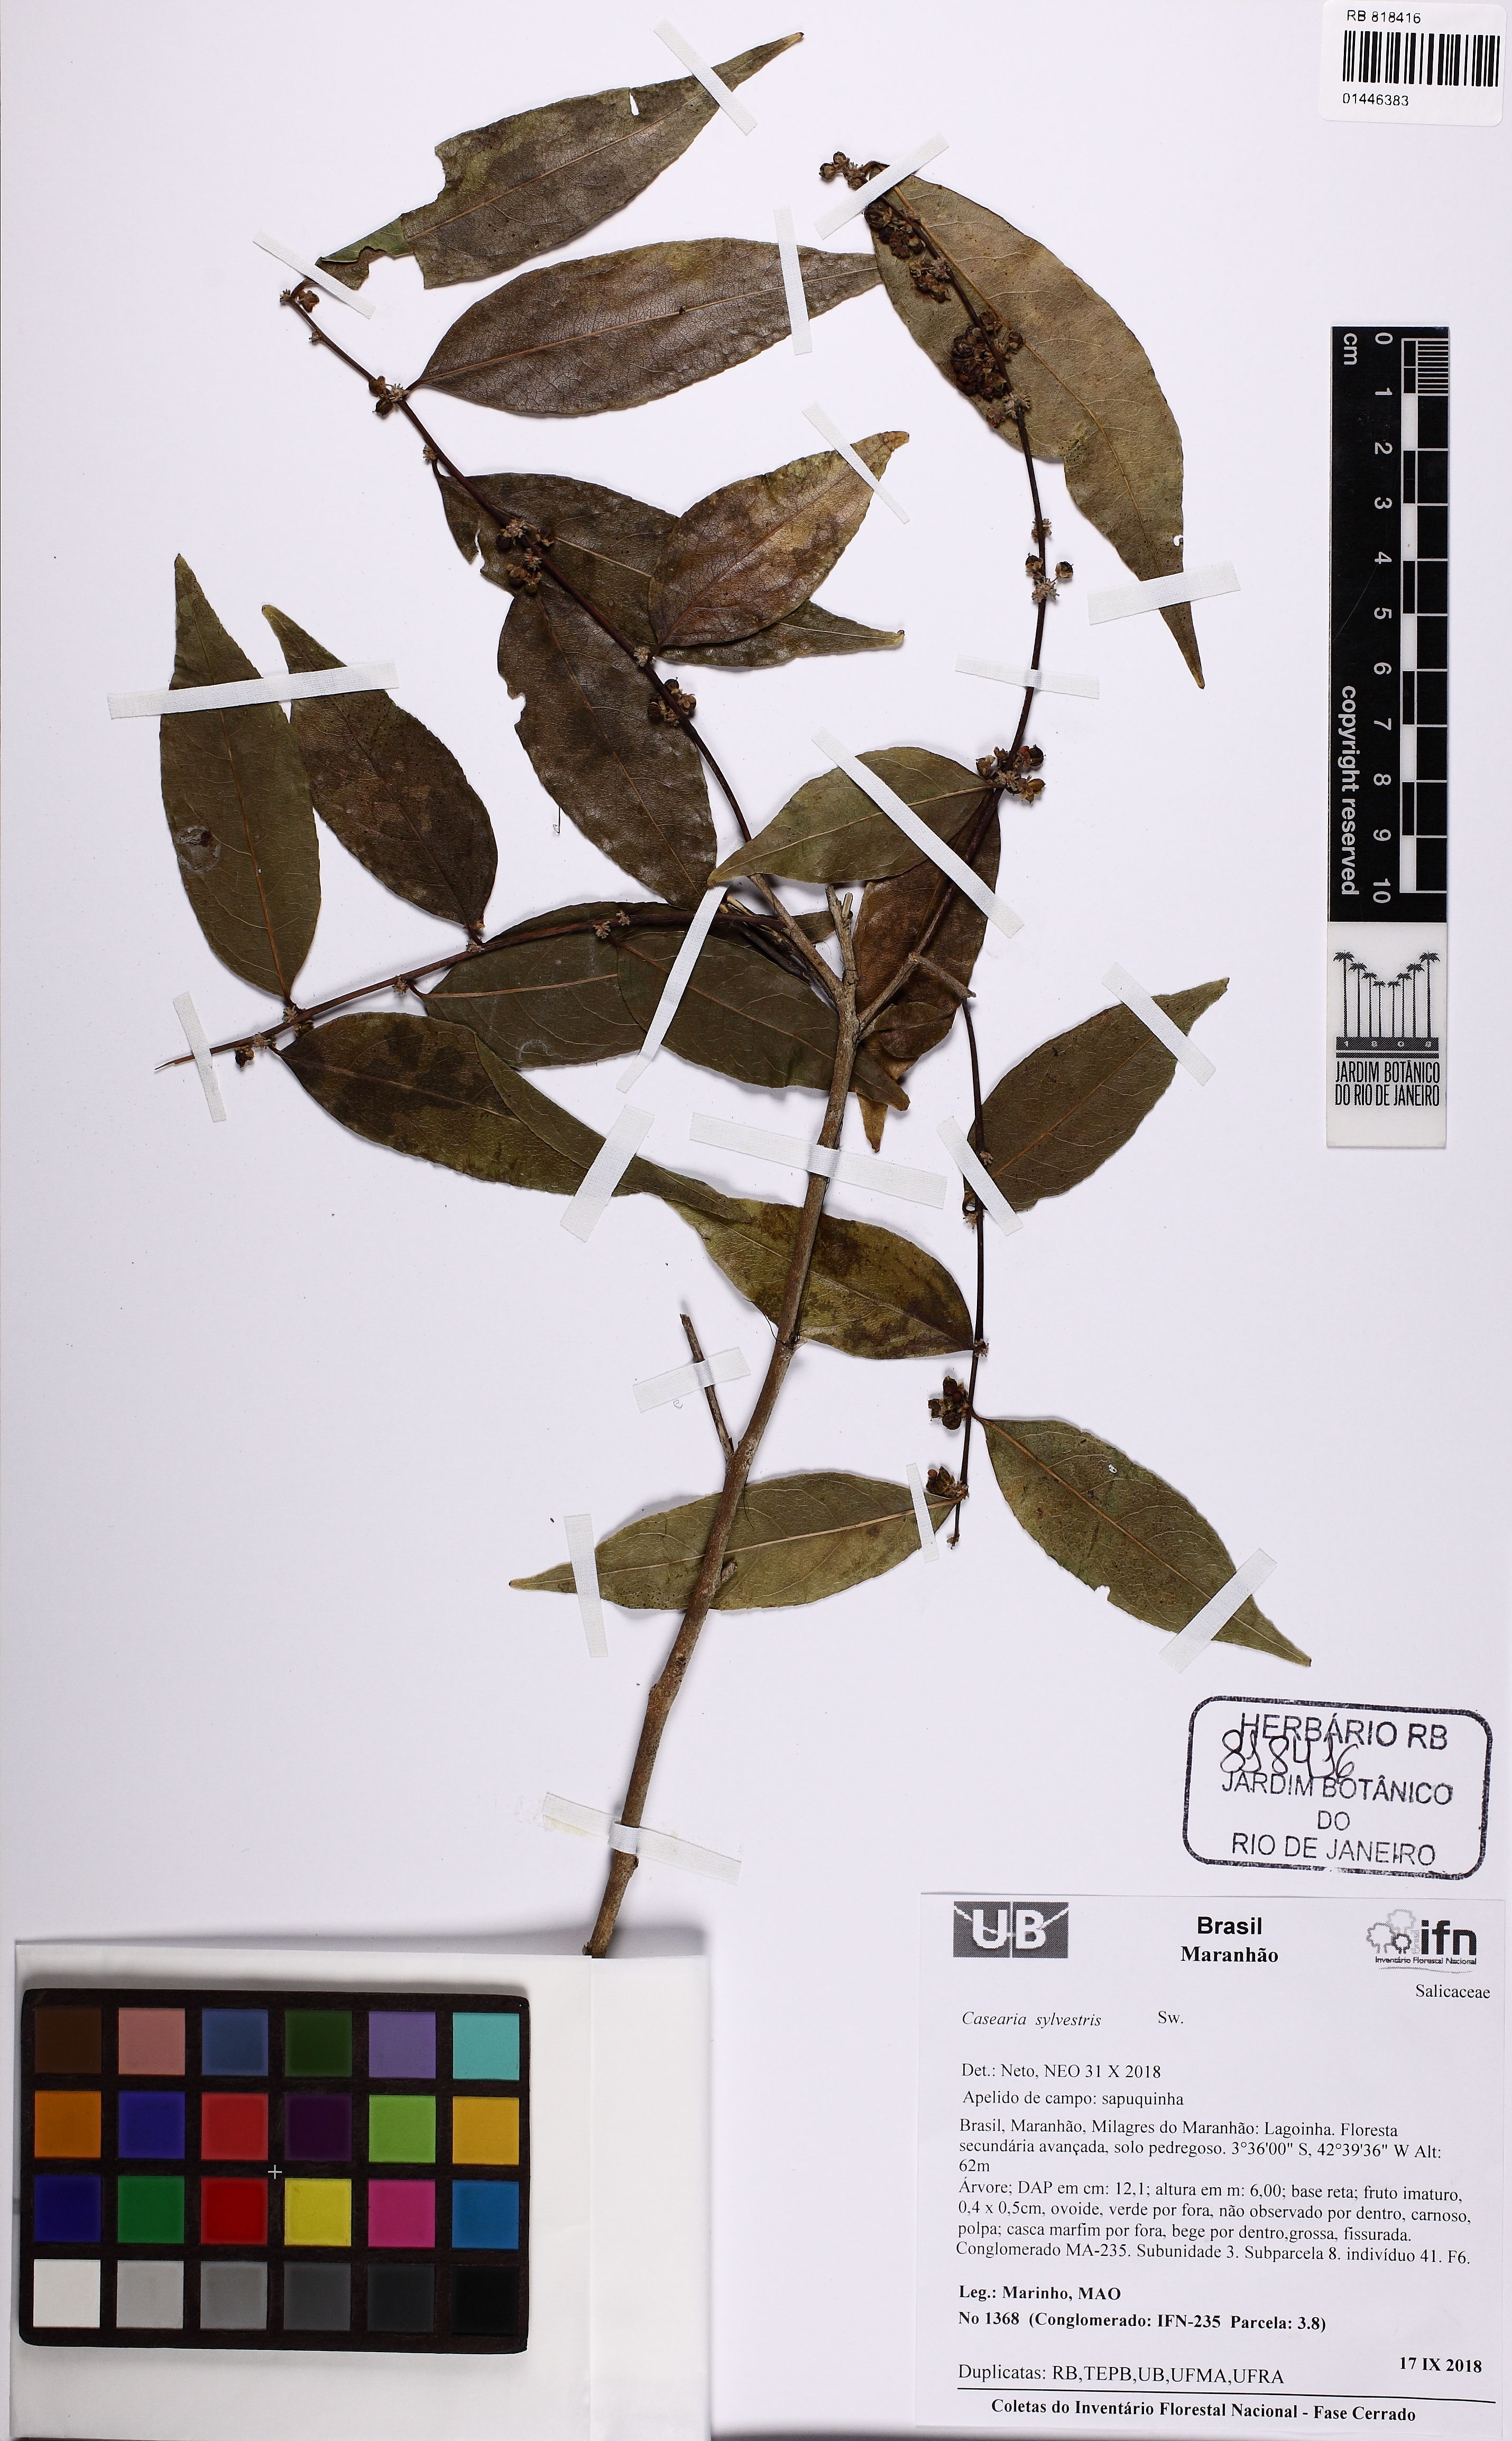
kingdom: Plantae
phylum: Tracheophyta
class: Magnoliopsida
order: Malpighiales
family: Salicaceae
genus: Casearia
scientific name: Casearia sylvestris
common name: Wild sage
